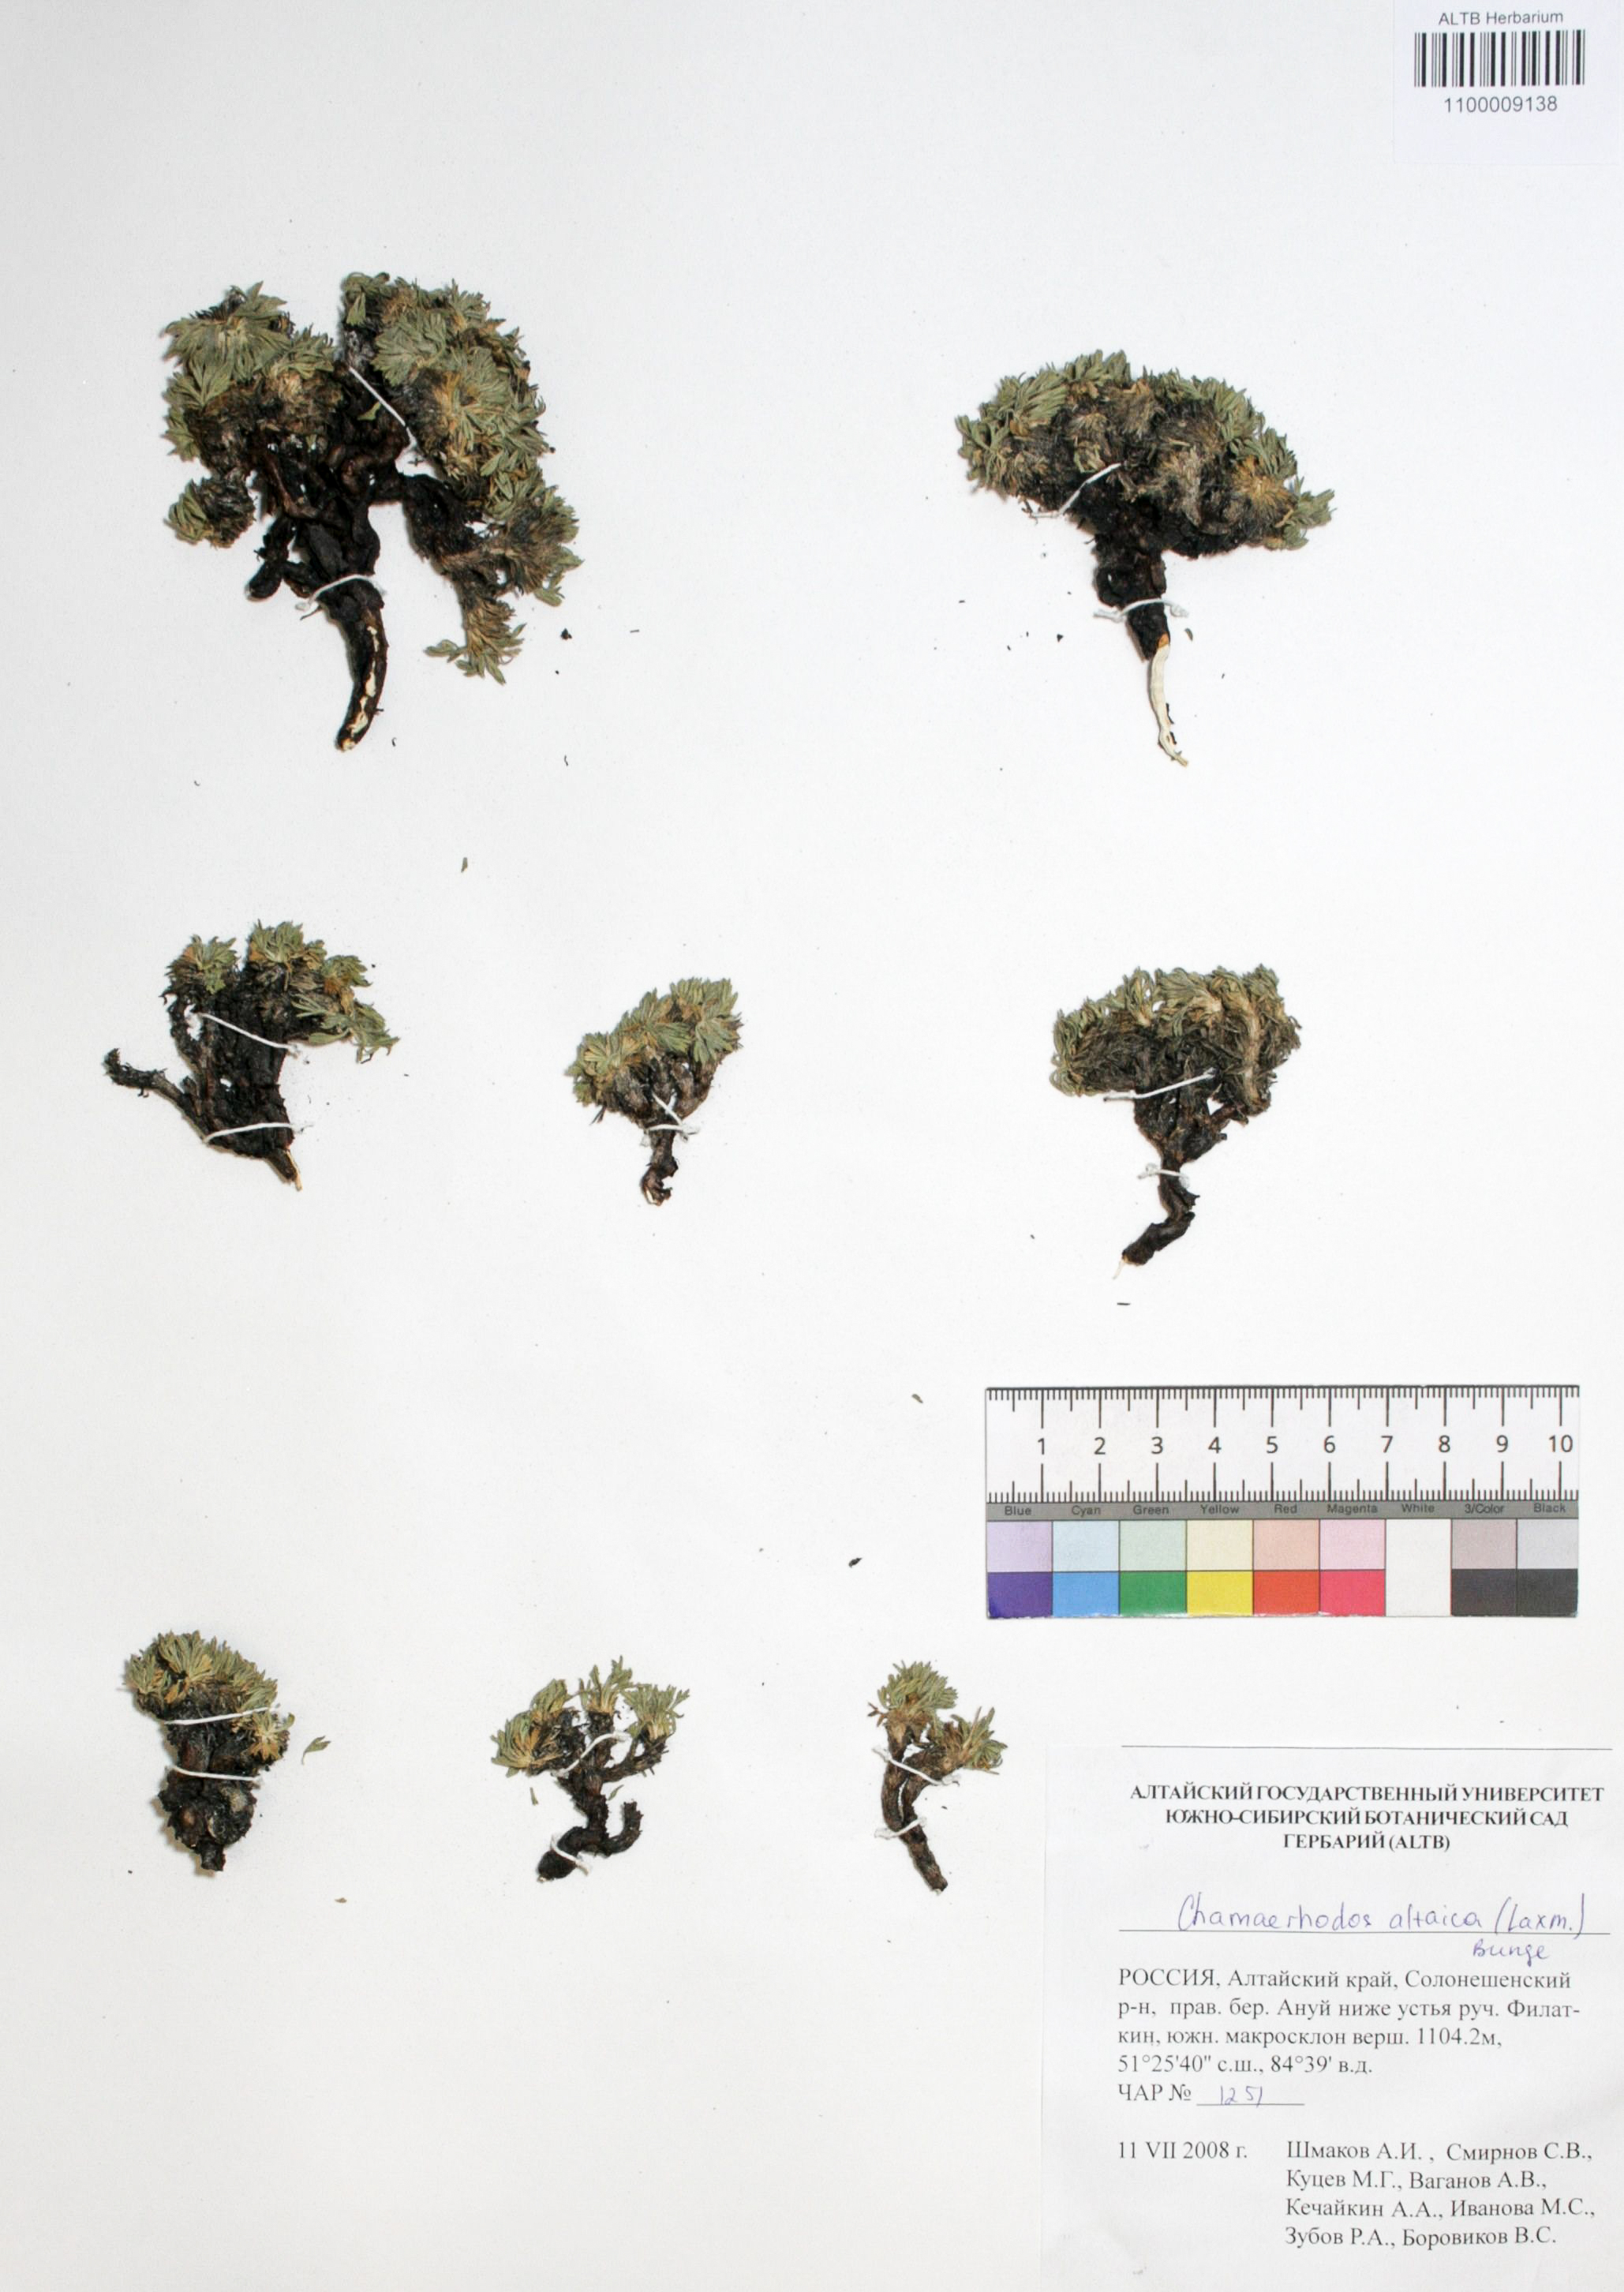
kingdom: Plantae
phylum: Tracheophyta
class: Magnoliopsida
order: Rosales
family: Rosaceae
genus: Chamaerhodos
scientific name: Chamaerhodos altaica
